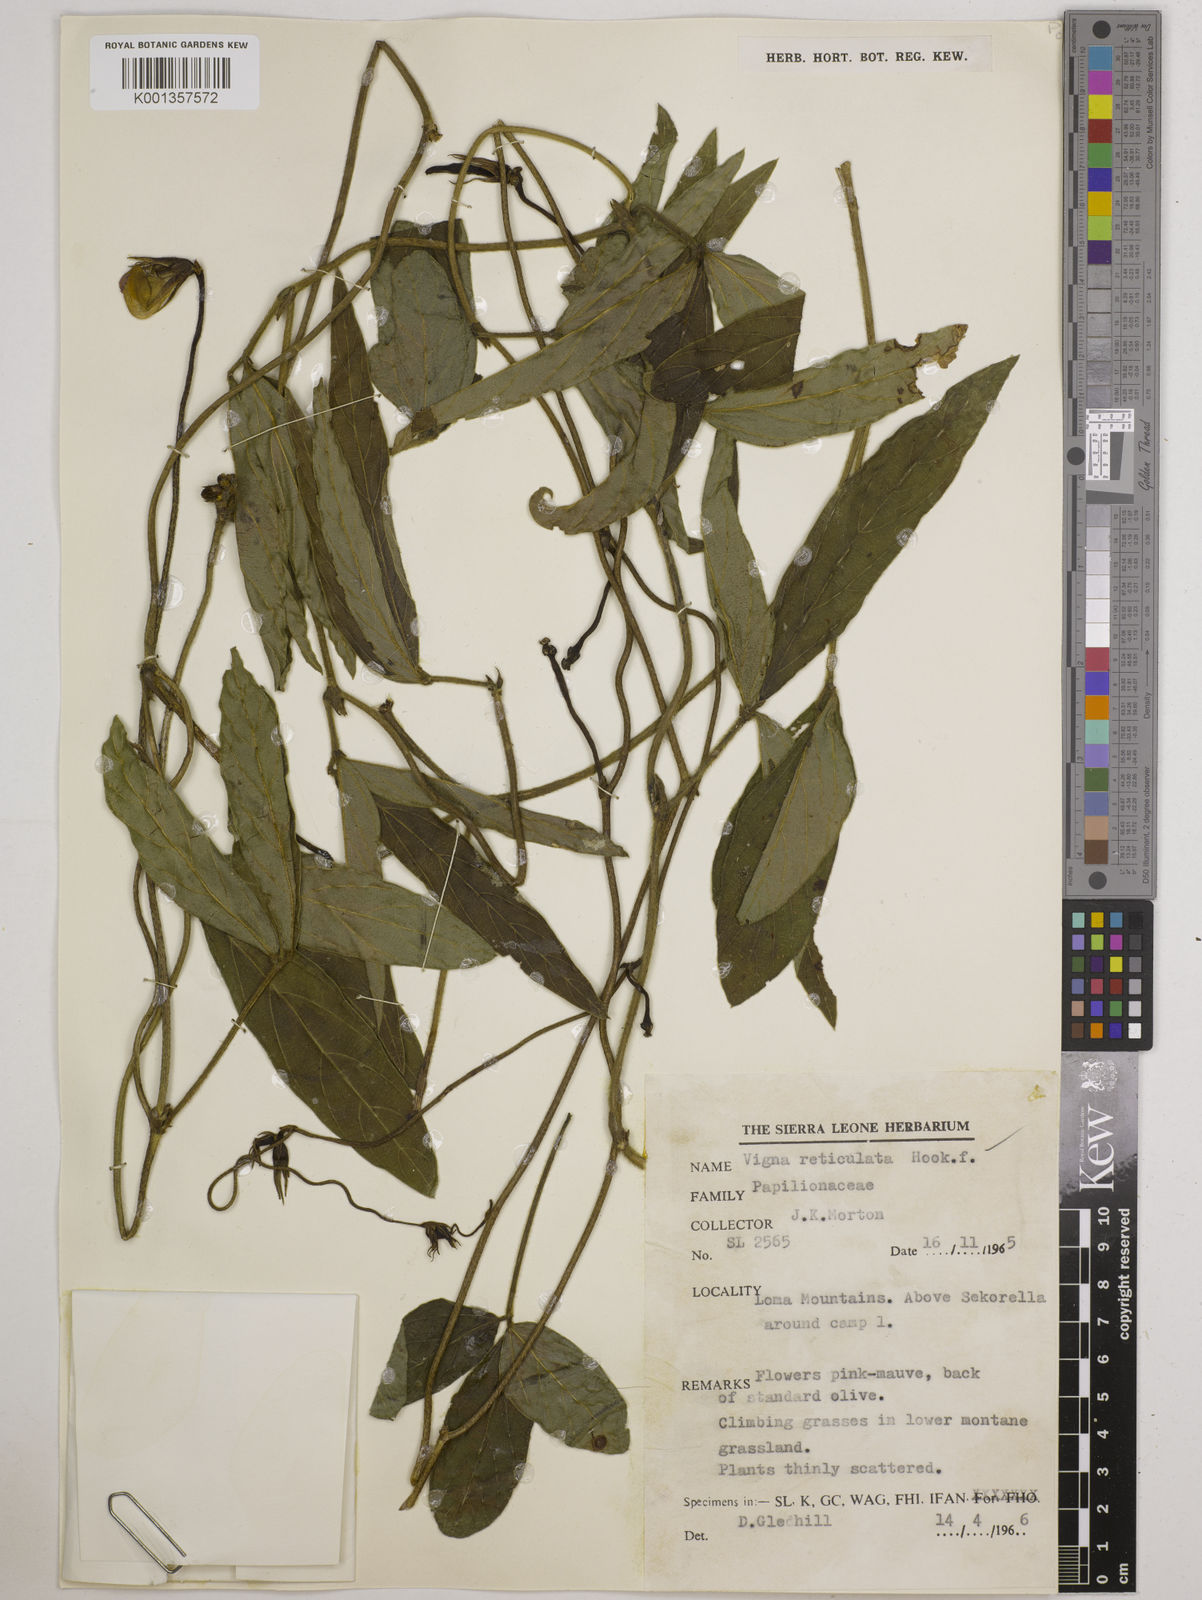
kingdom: Plantae
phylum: Tracheophyta
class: Magnoliopsida
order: Fabales
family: Fabaceae
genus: Vigna
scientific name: Vigna reticulata
